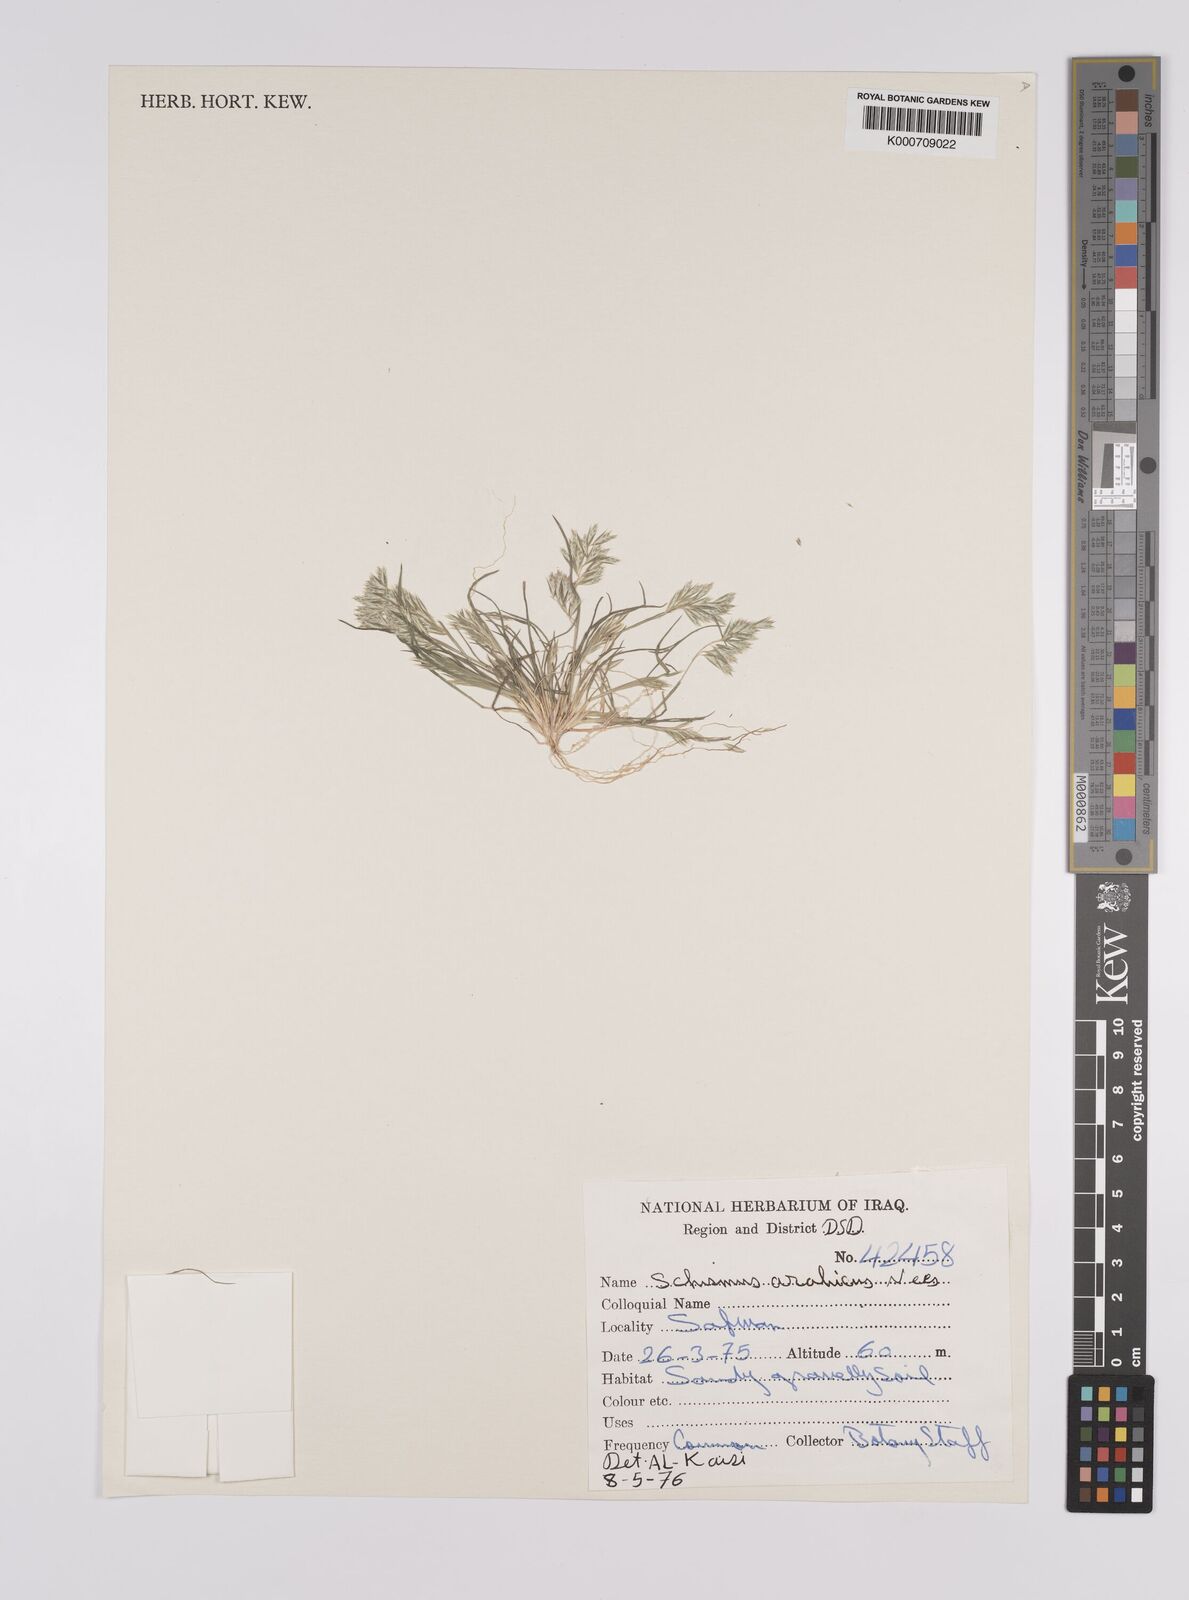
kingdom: Plantae
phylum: Tracheophyta
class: Liliopsida
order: Poales
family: Poaceae
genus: Schismus
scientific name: Schismus arabicus
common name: Arabian schismus
